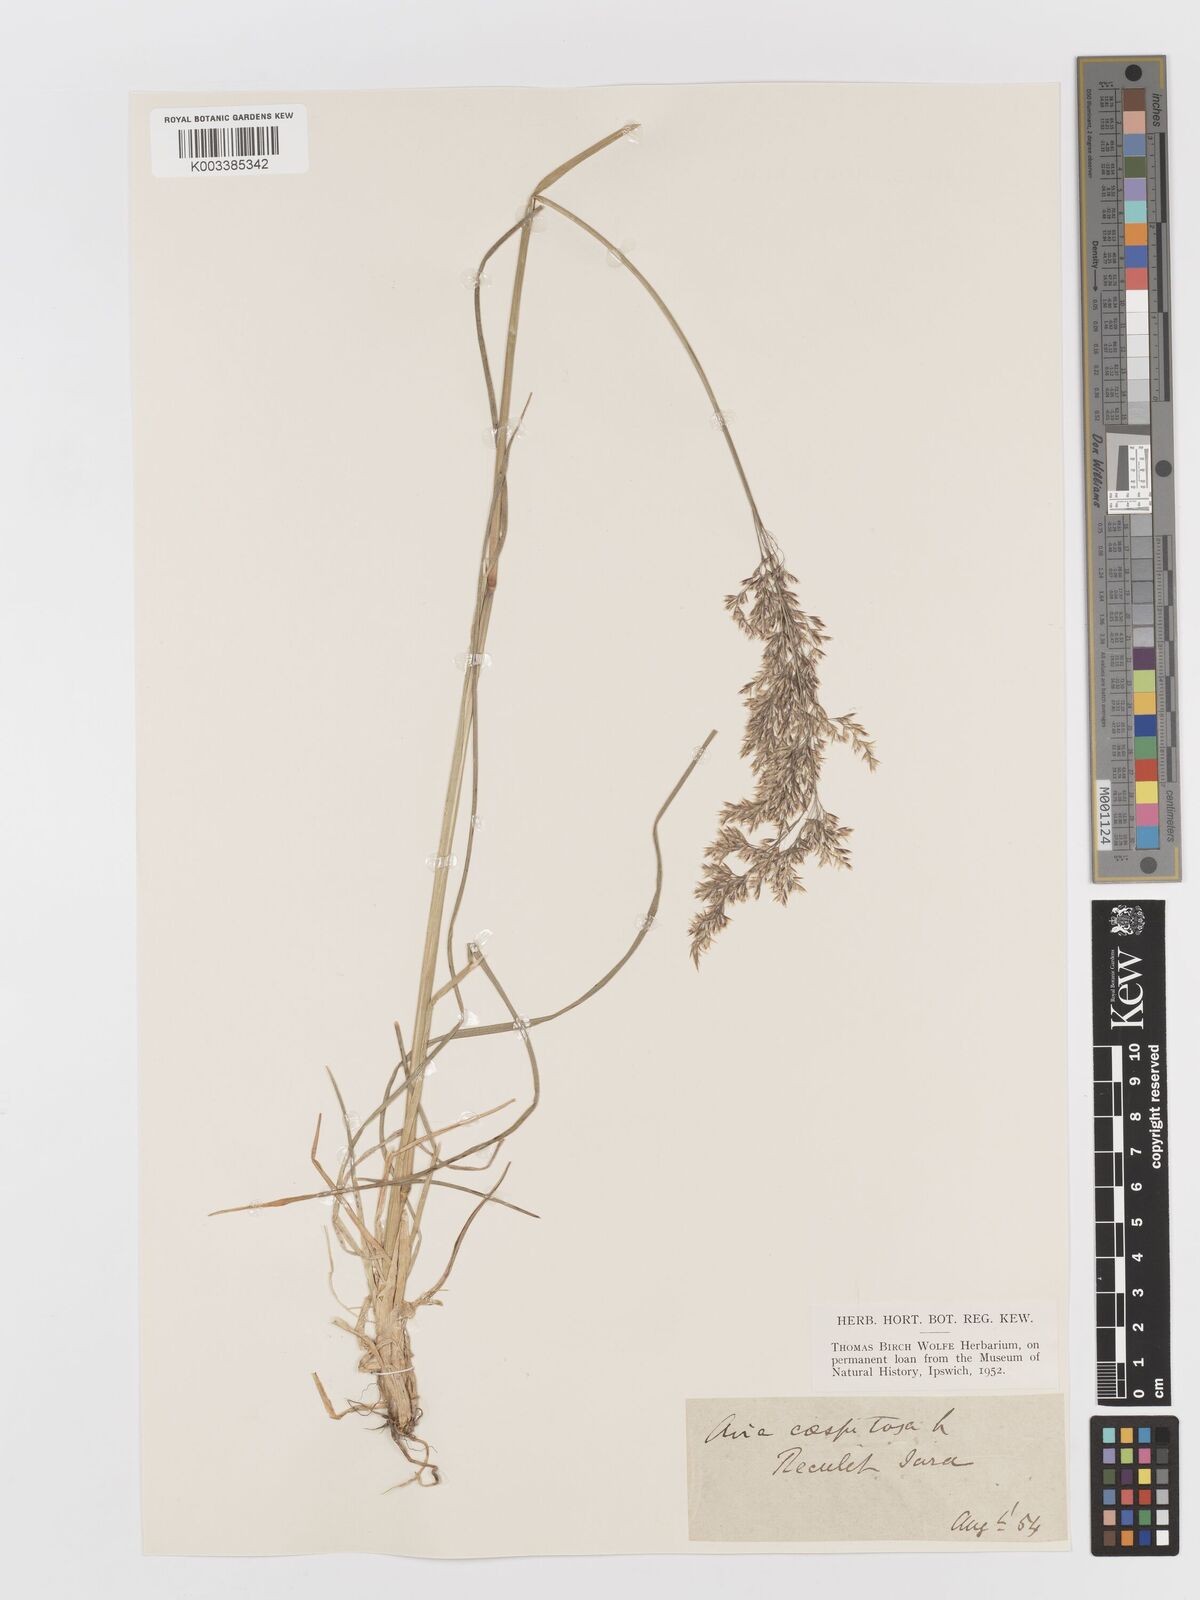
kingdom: Plantae
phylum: Tracheophyta
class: Liliopsida
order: Poales
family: Poaceae
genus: Deschampsia
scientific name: Deschampsia cespitosa
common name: Tufted hair-grass
